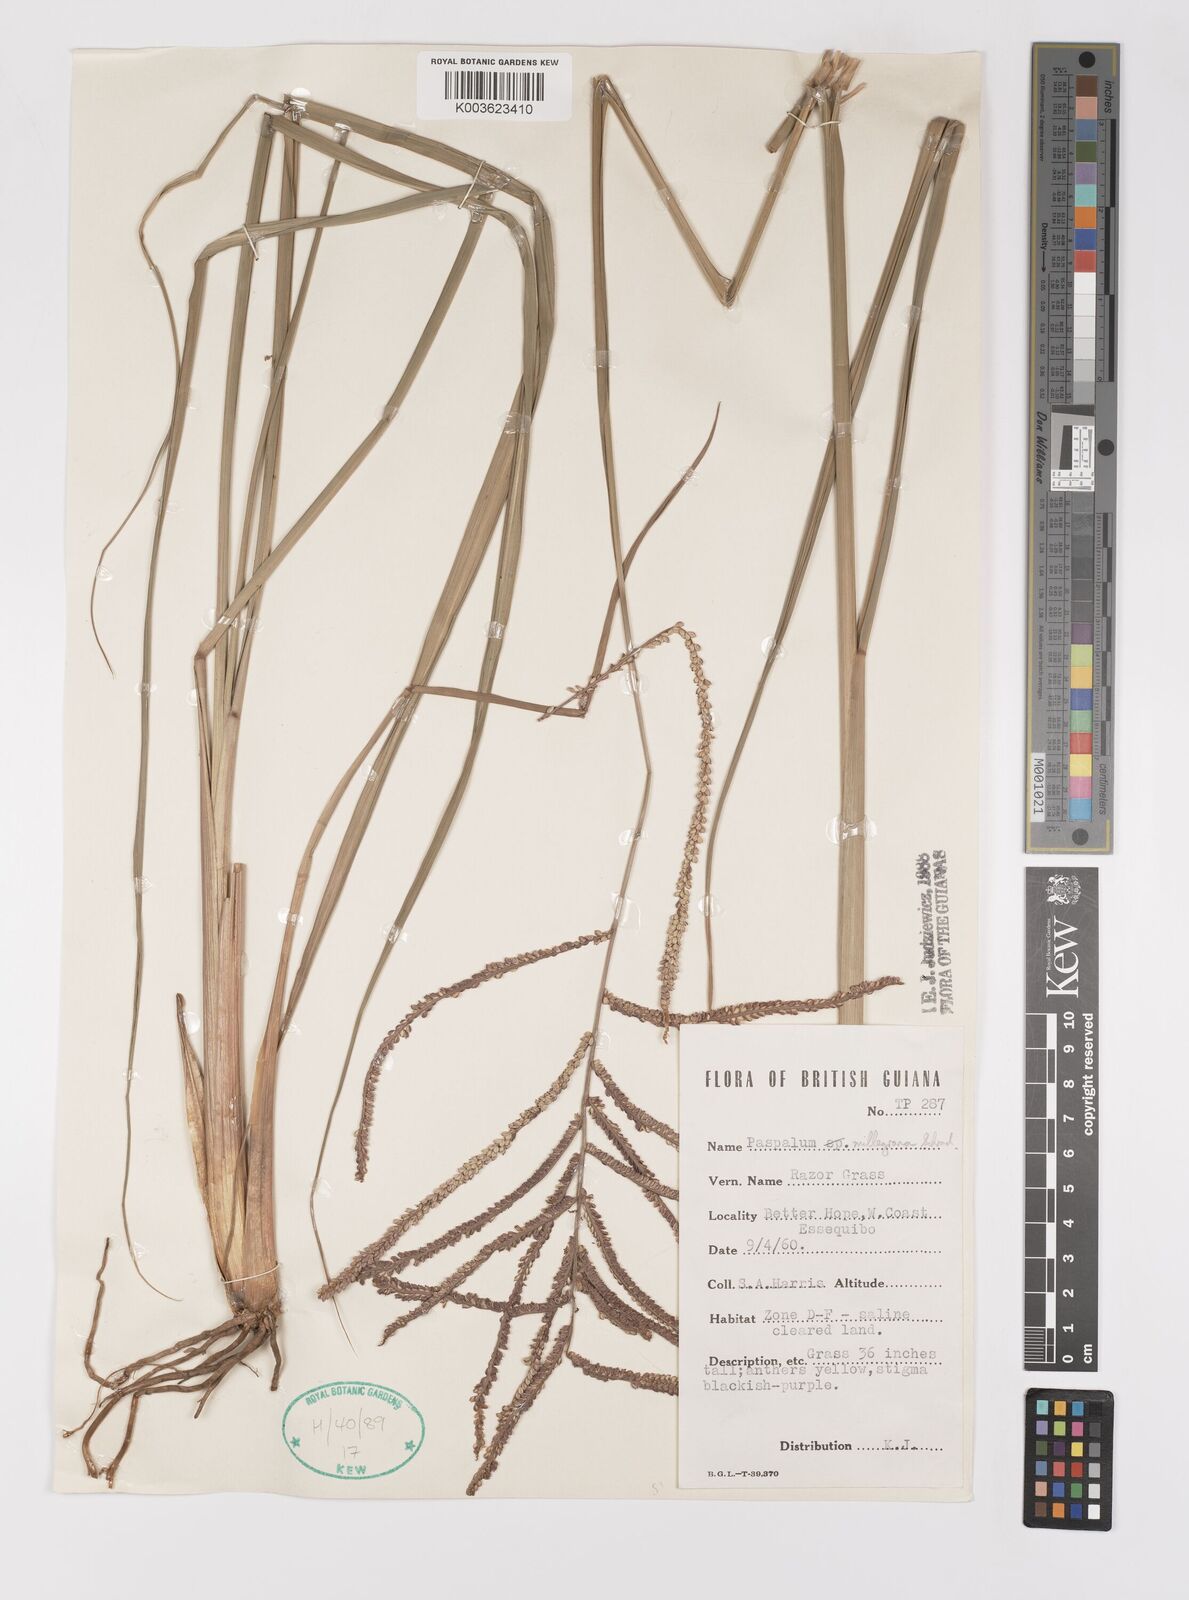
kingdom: Plantae
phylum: Tracheophyta
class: Liliopsida
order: Poales
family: Poaceae
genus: Paspalum
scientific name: Paspalum millegranum
